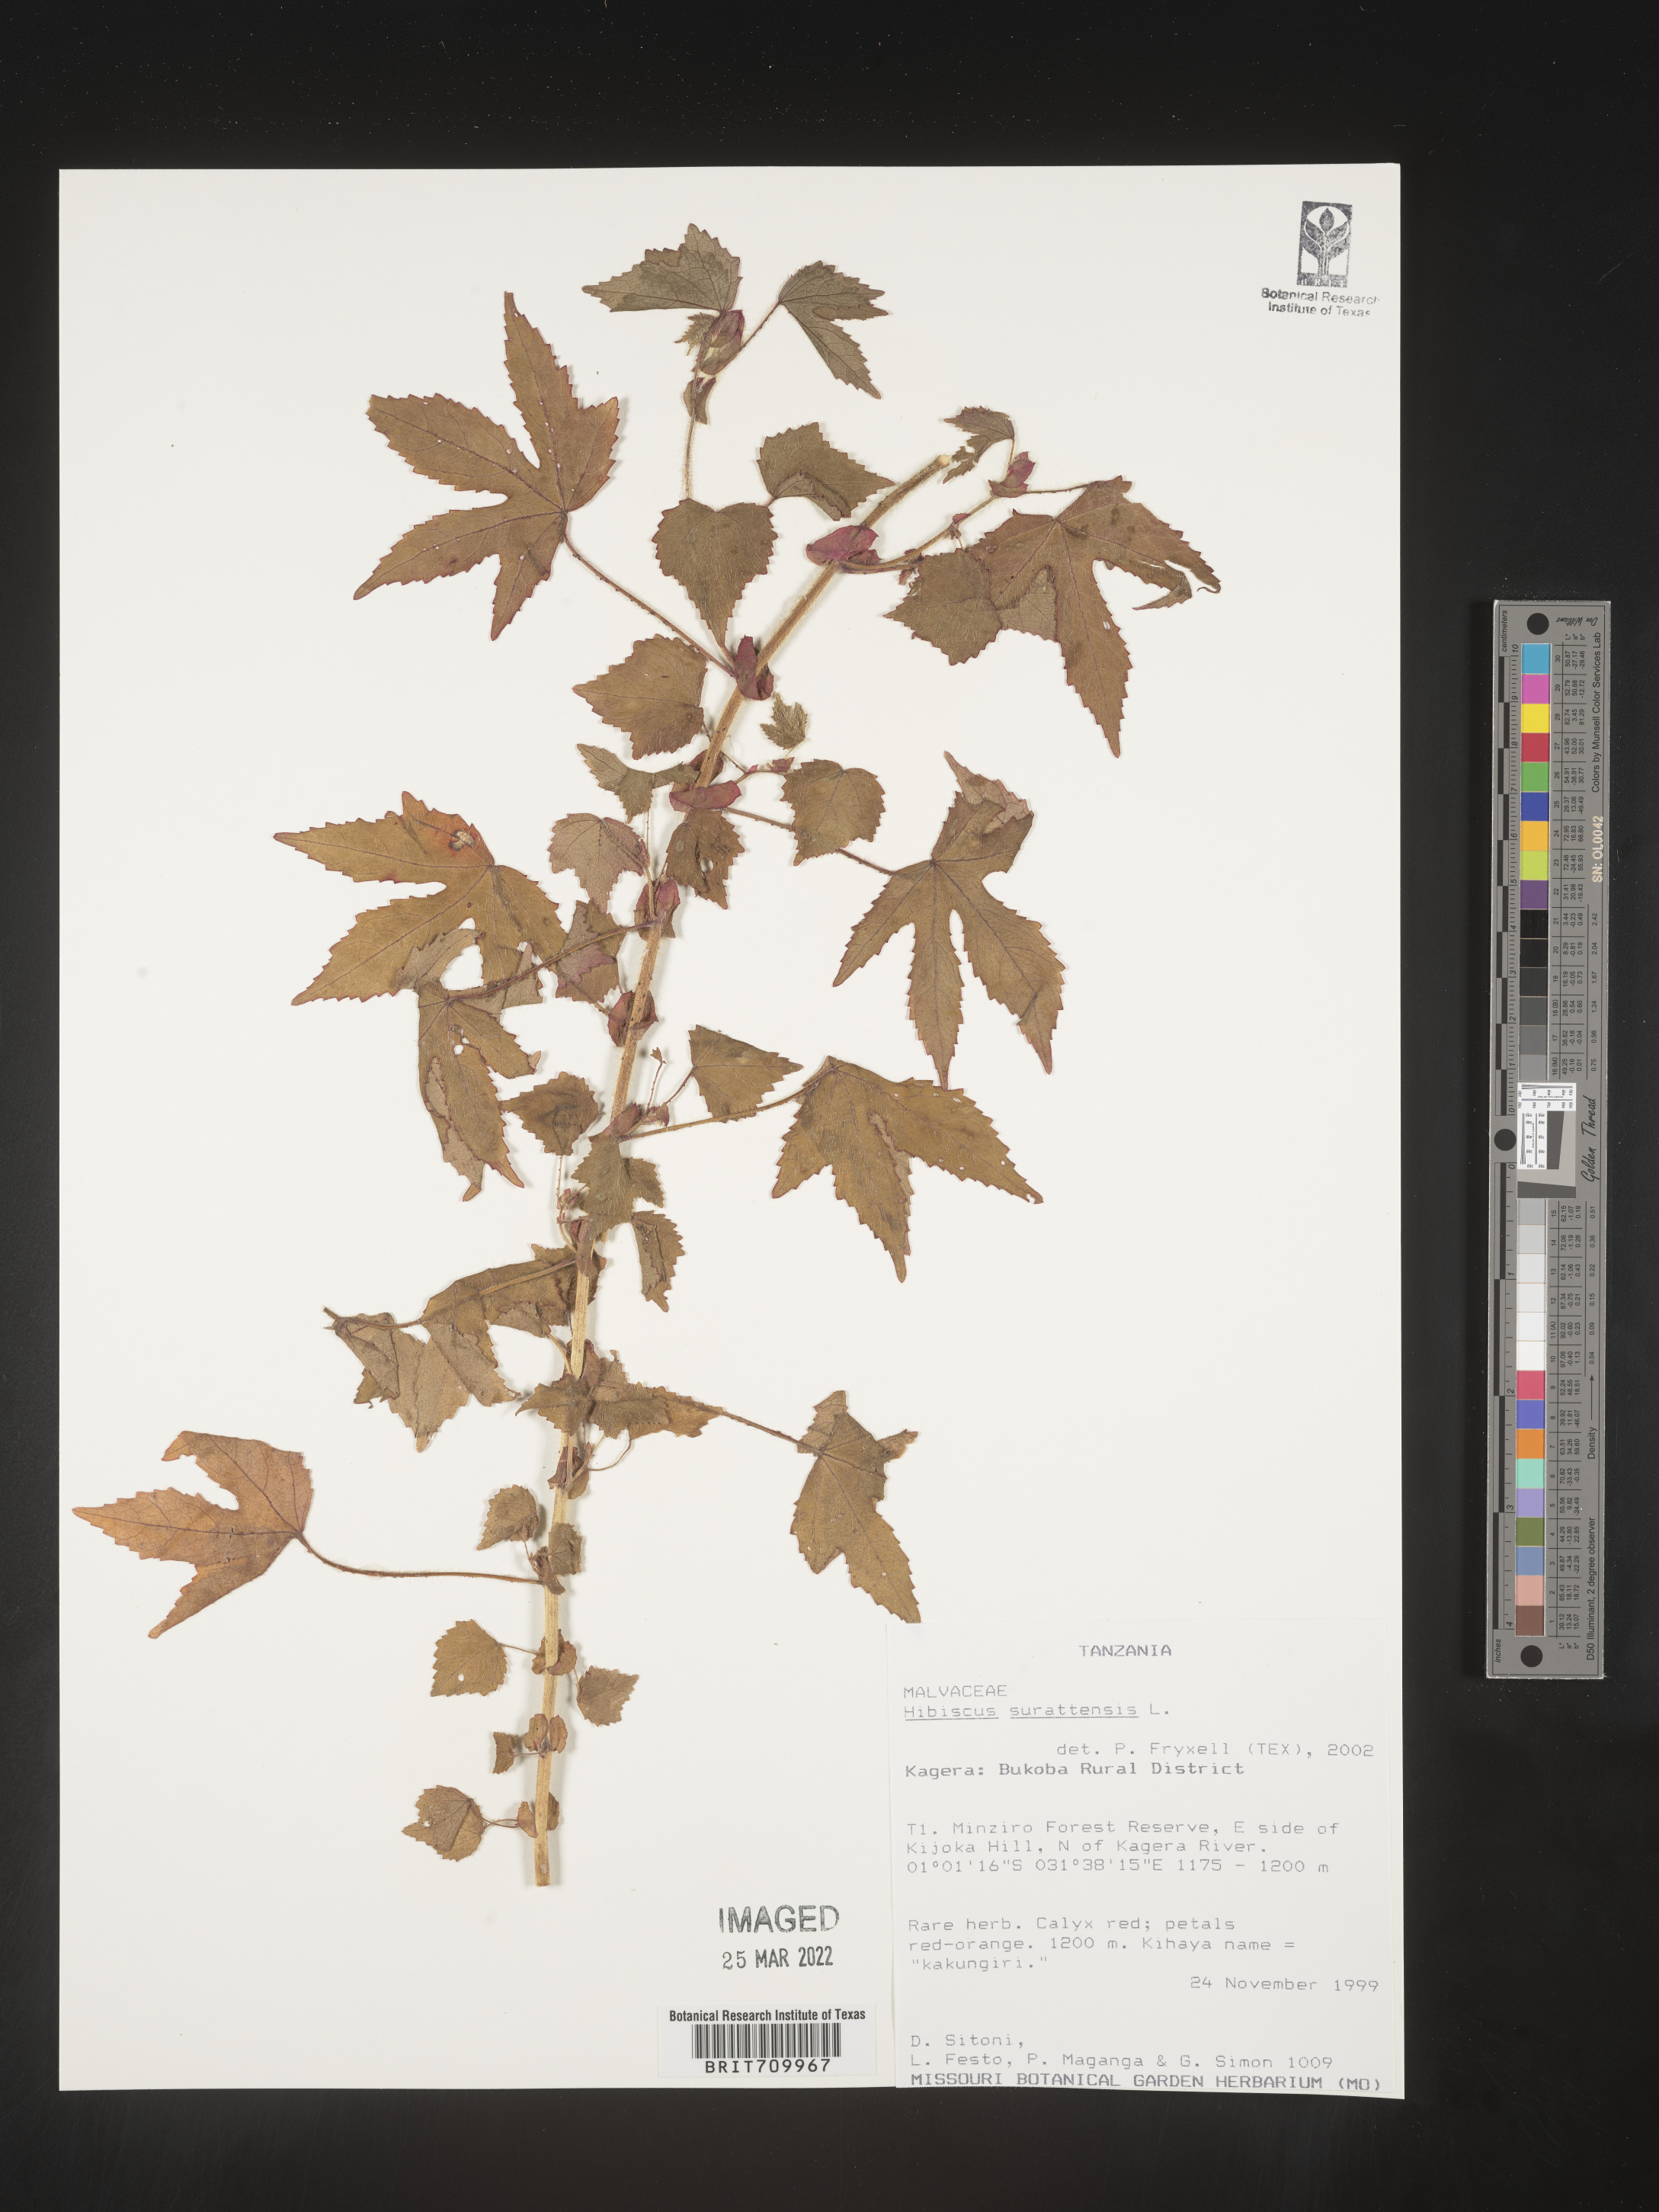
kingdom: Plantae
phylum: Tracheophyta
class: Magnoliopsida
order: Malvales
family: Malvaceae
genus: Hibiscus
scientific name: Hibiscus
